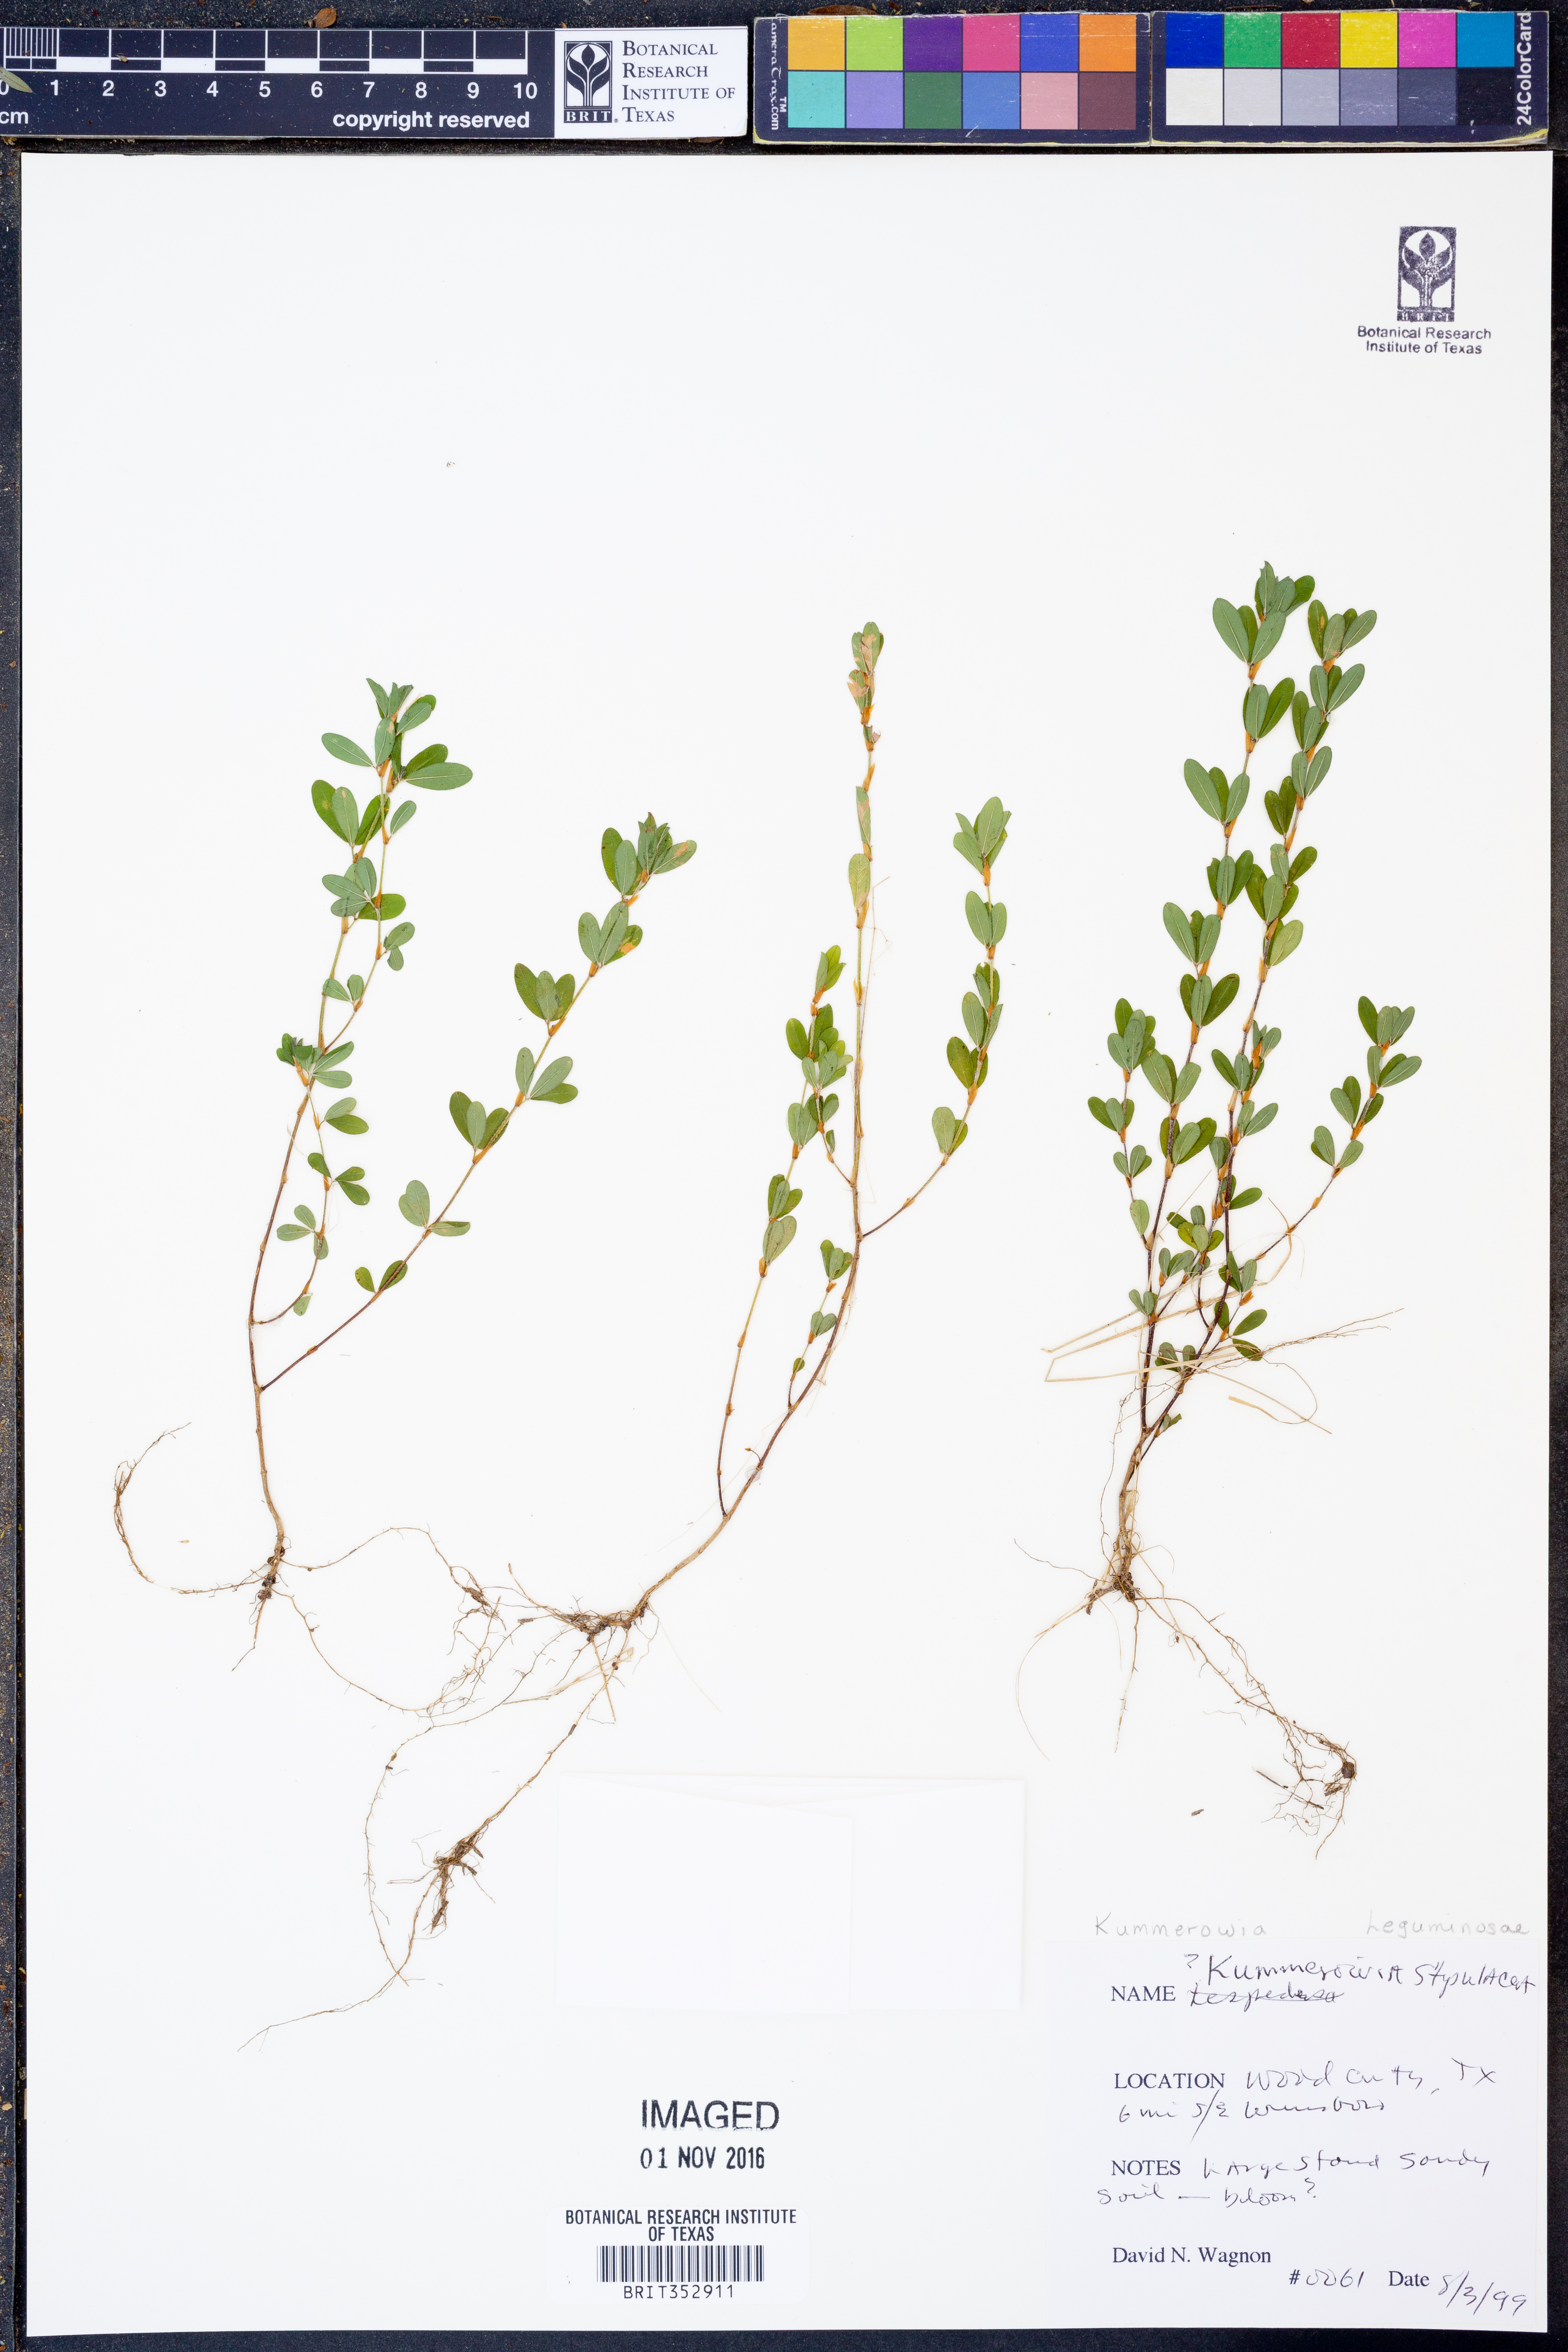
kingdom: Plantae
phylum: Tracheophyta
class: Magnoliopsida
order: Fabales
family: Fabaceae
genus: Kummerowia
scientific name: Kummerowia stipulacea
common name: Korean clover
